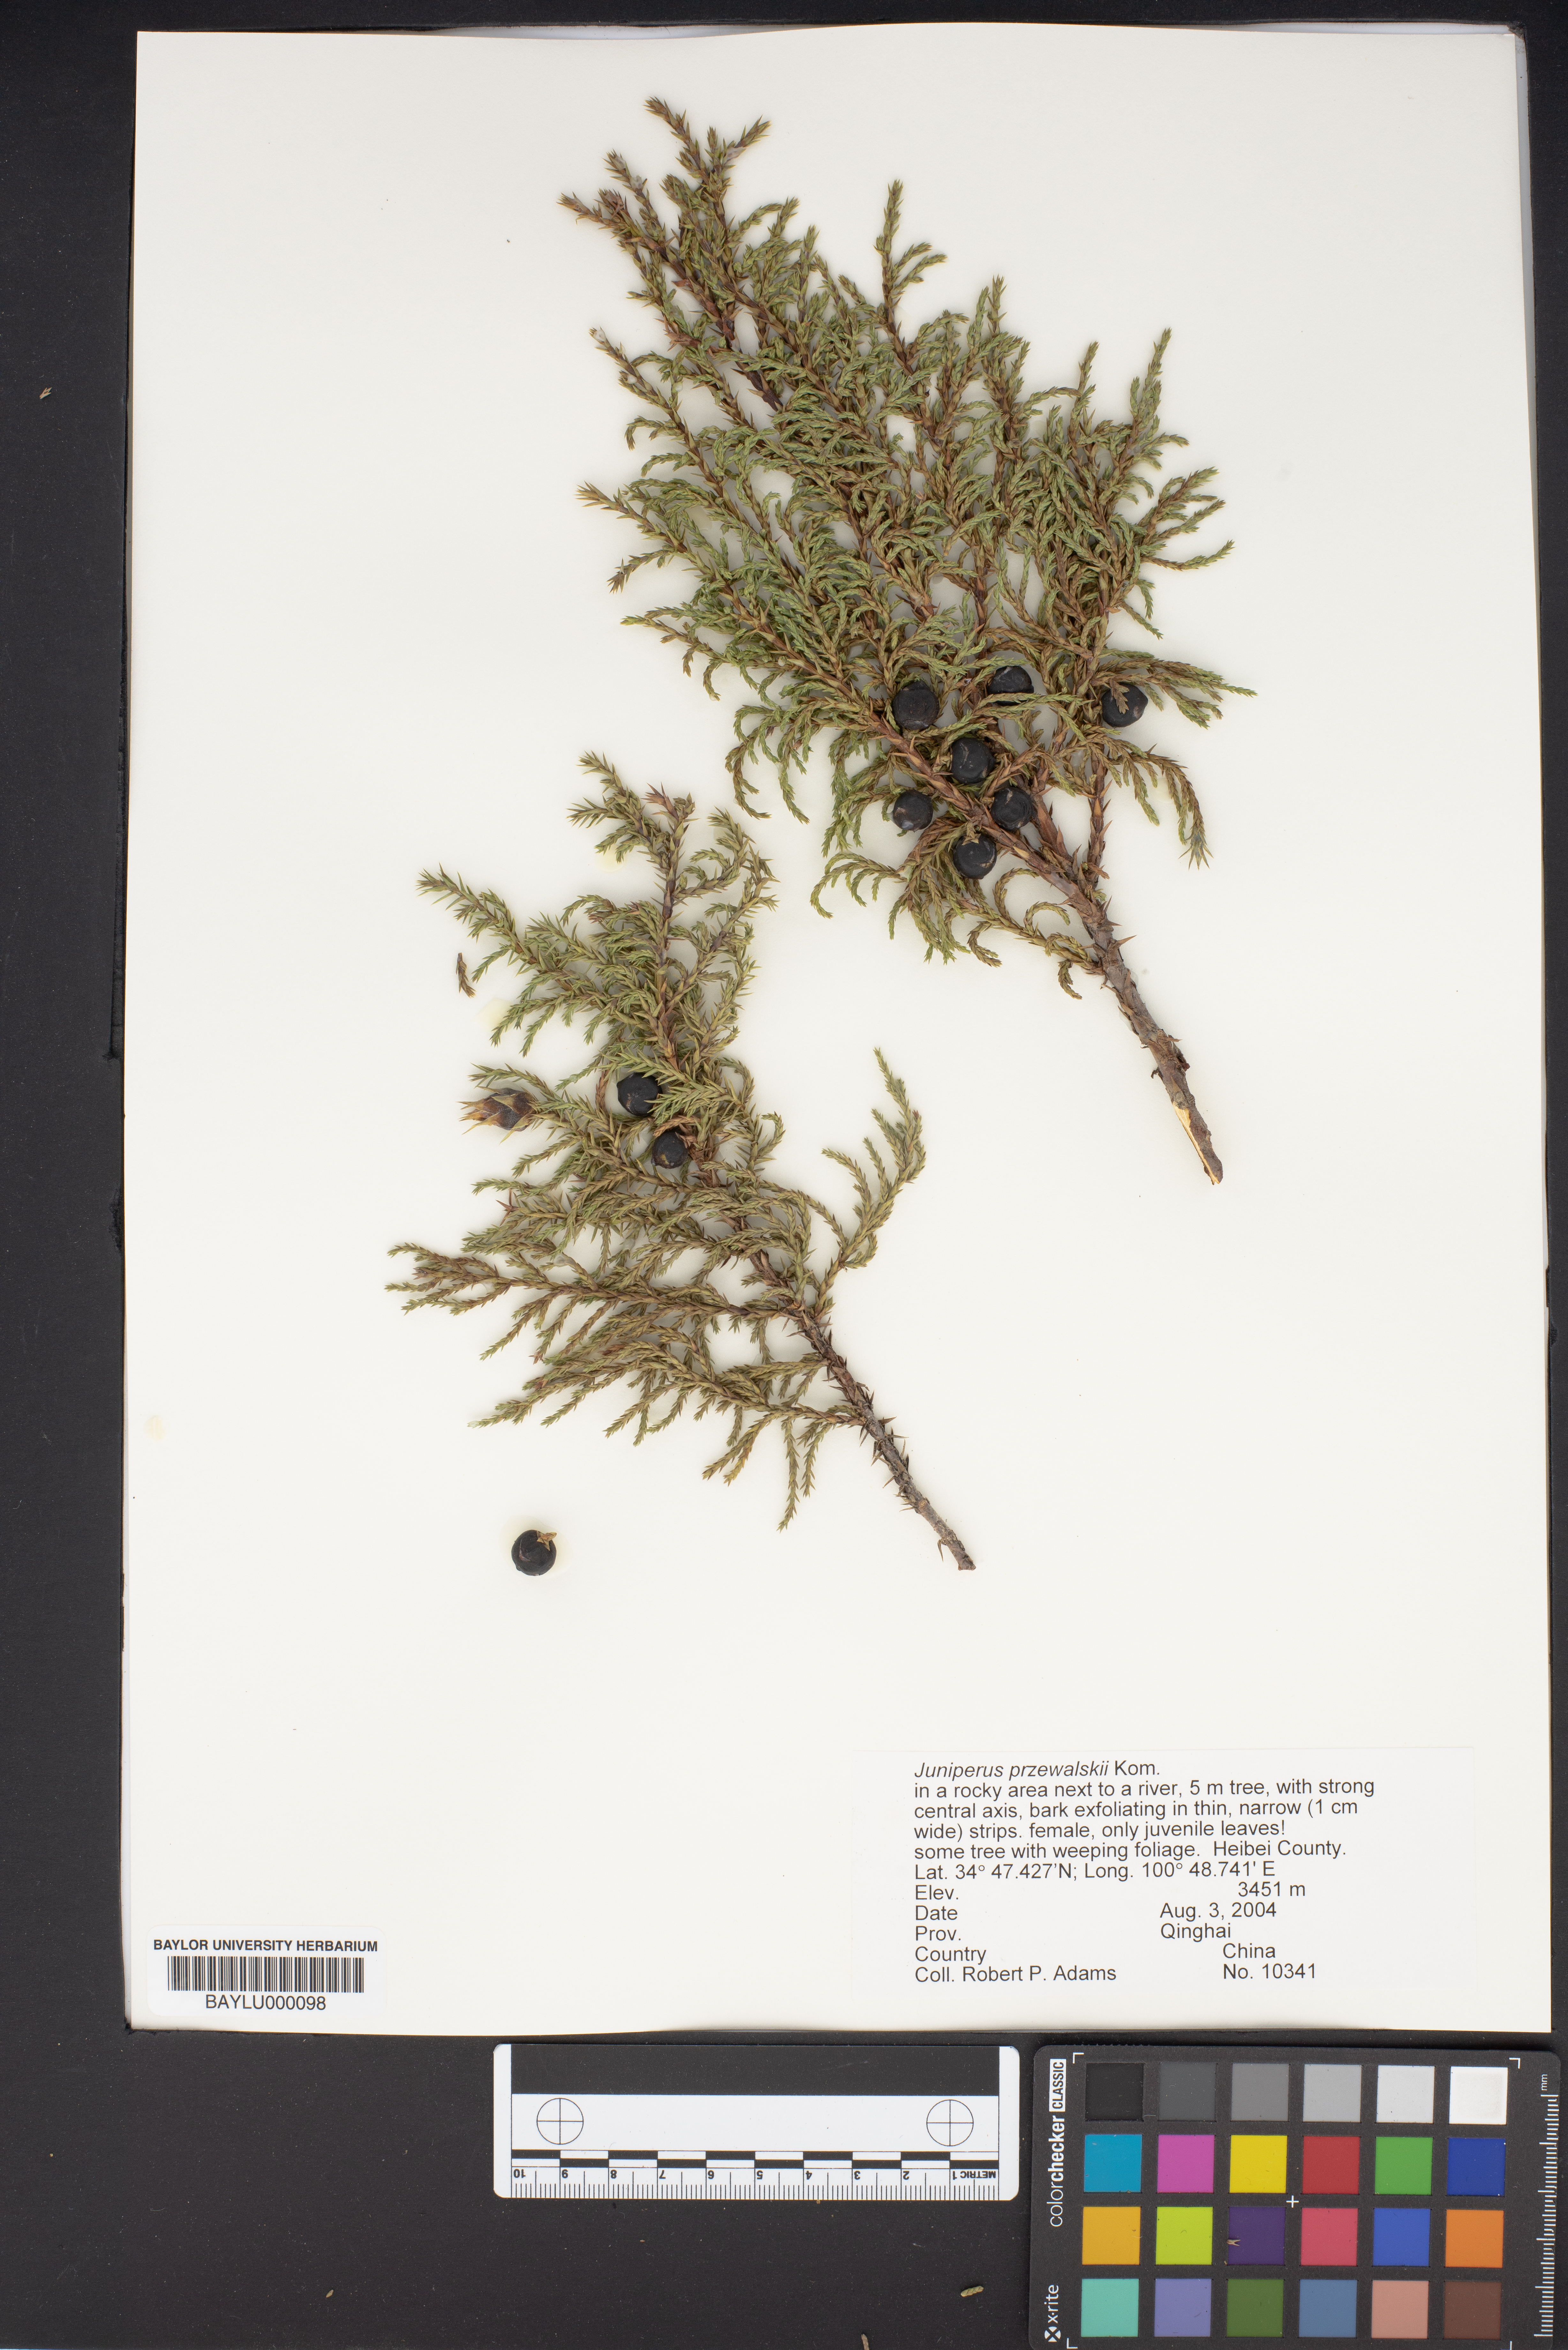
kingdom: Plantae
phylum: Tracheophyta
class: Pinopsida
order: Pinales
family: Cupressaceae
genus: Juniperus
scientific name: Juniperus przewalskii
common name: Przewalsi juniper
